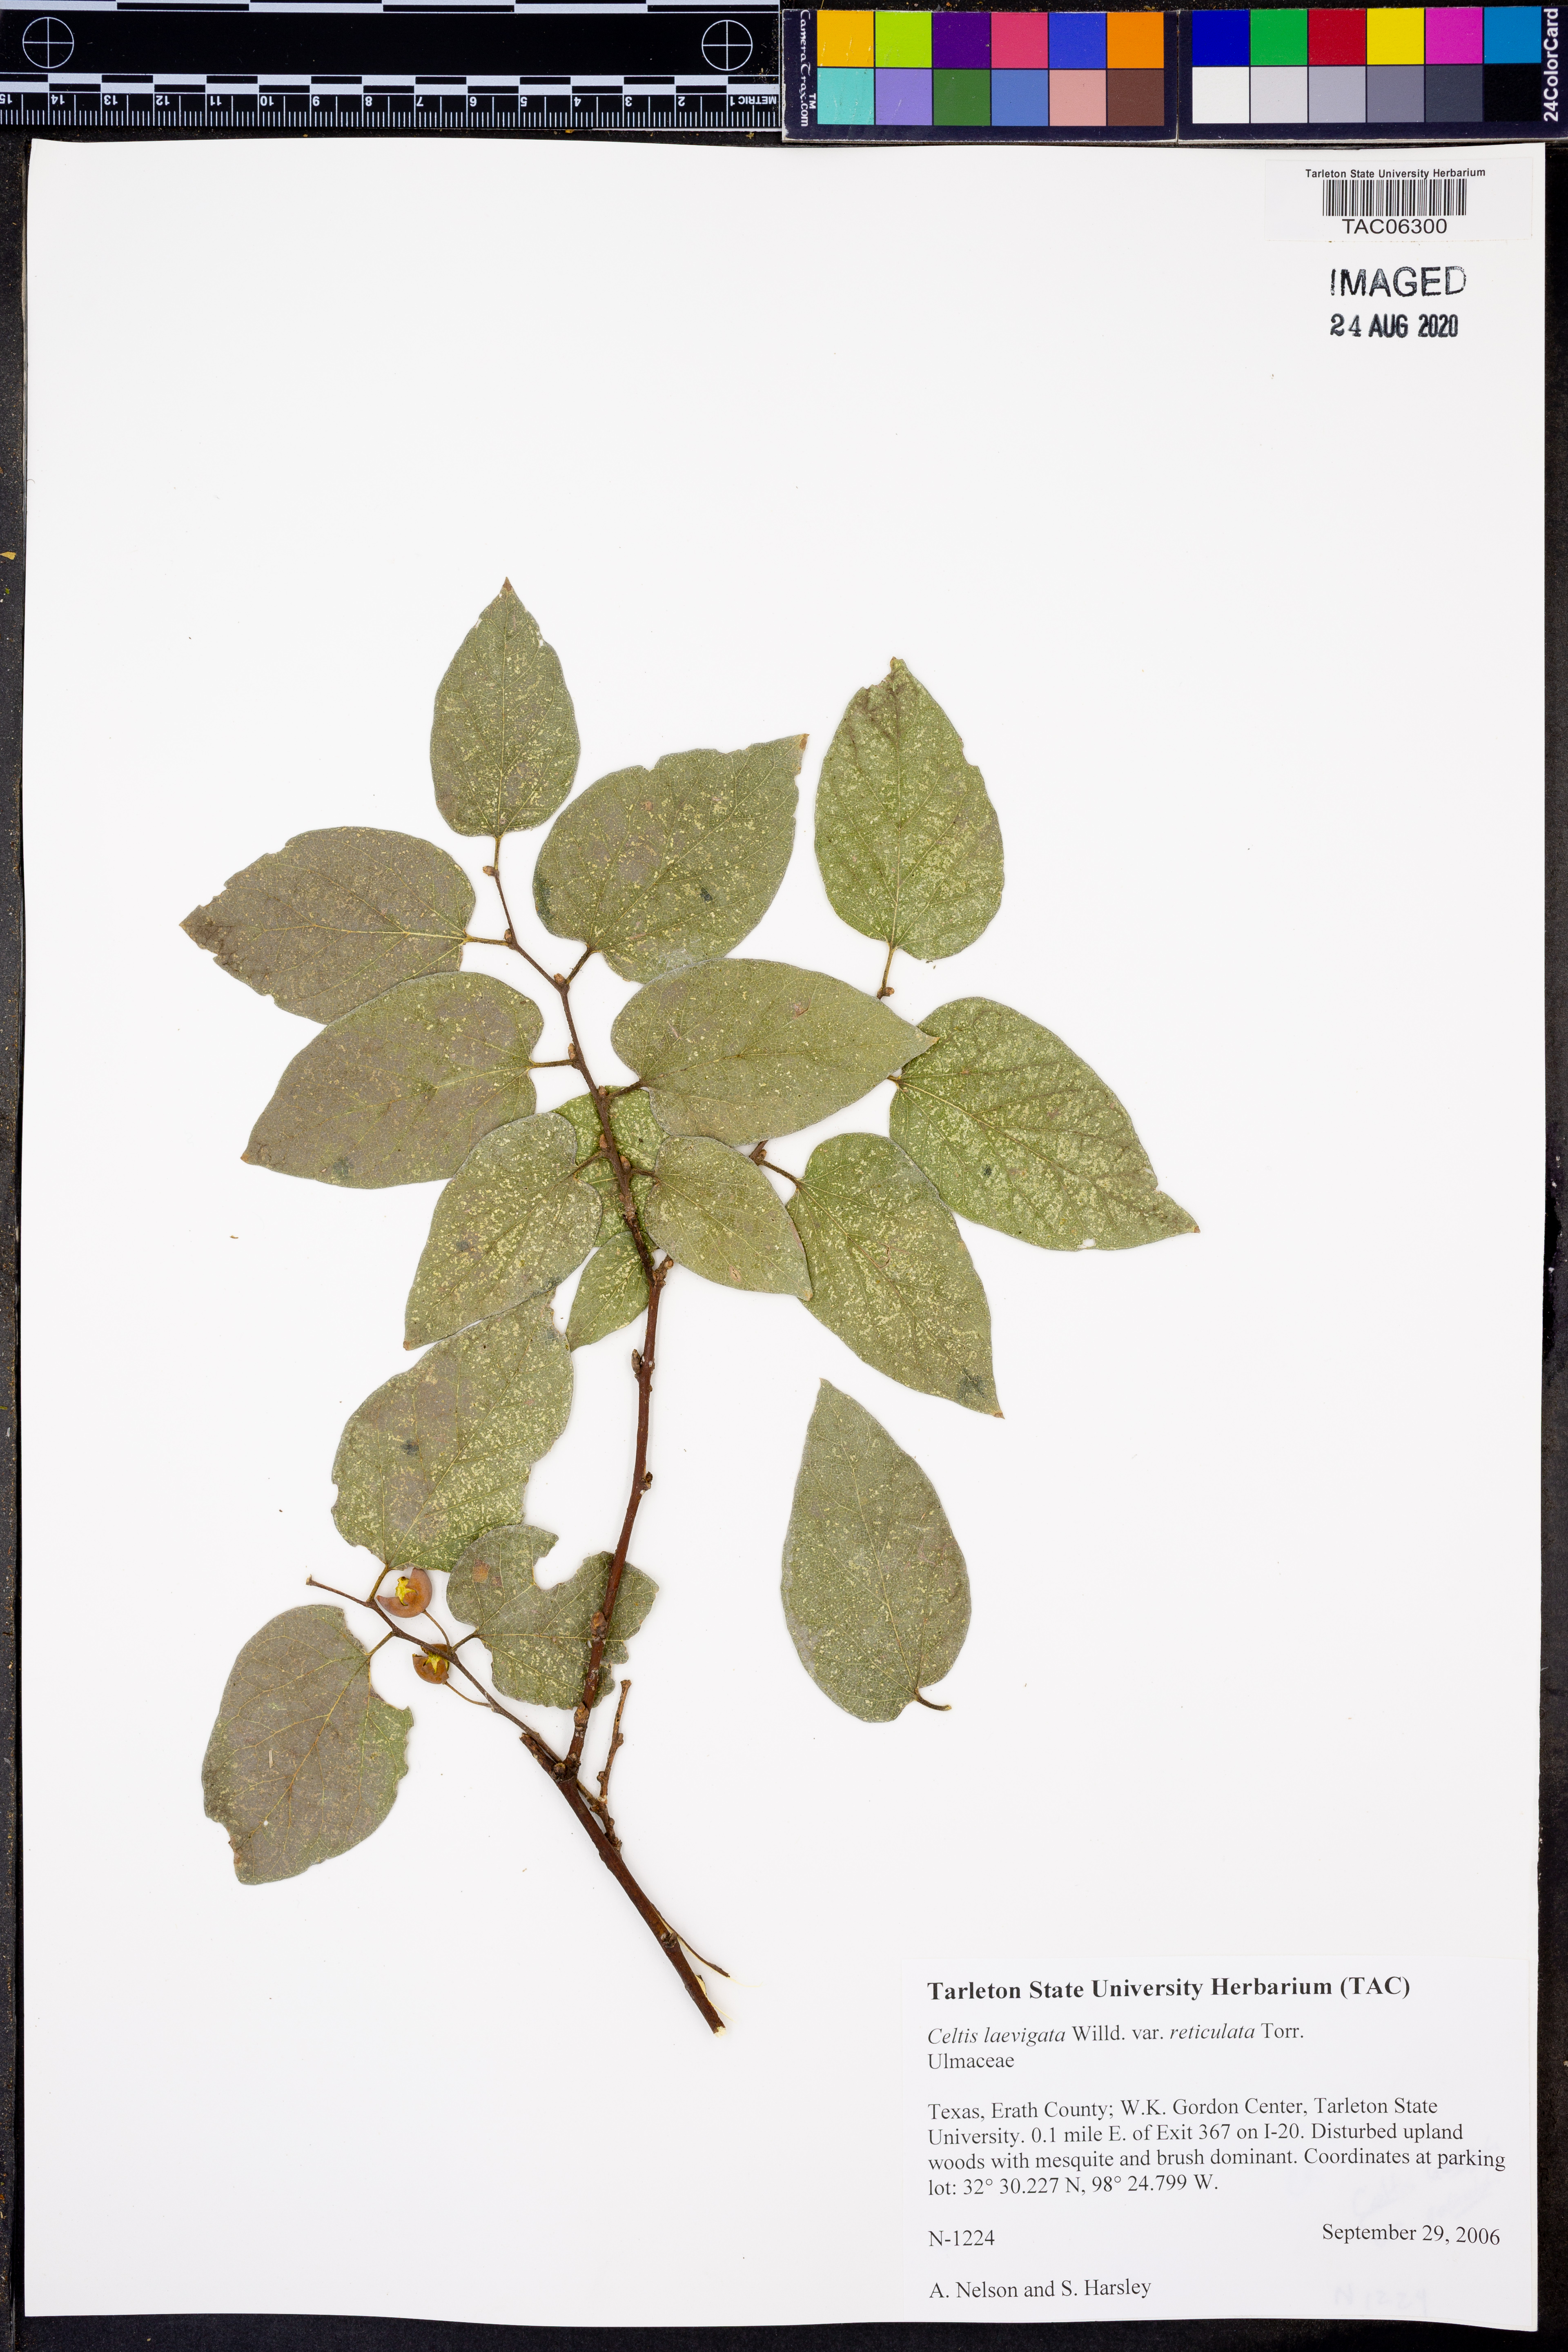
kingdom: Plantae
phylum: Tracheophyta
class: Magnoliopsida
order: Rosales
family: Cannabaceae
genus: Celtis
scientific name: Celtis reticulata
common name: Netleaf hackberry
